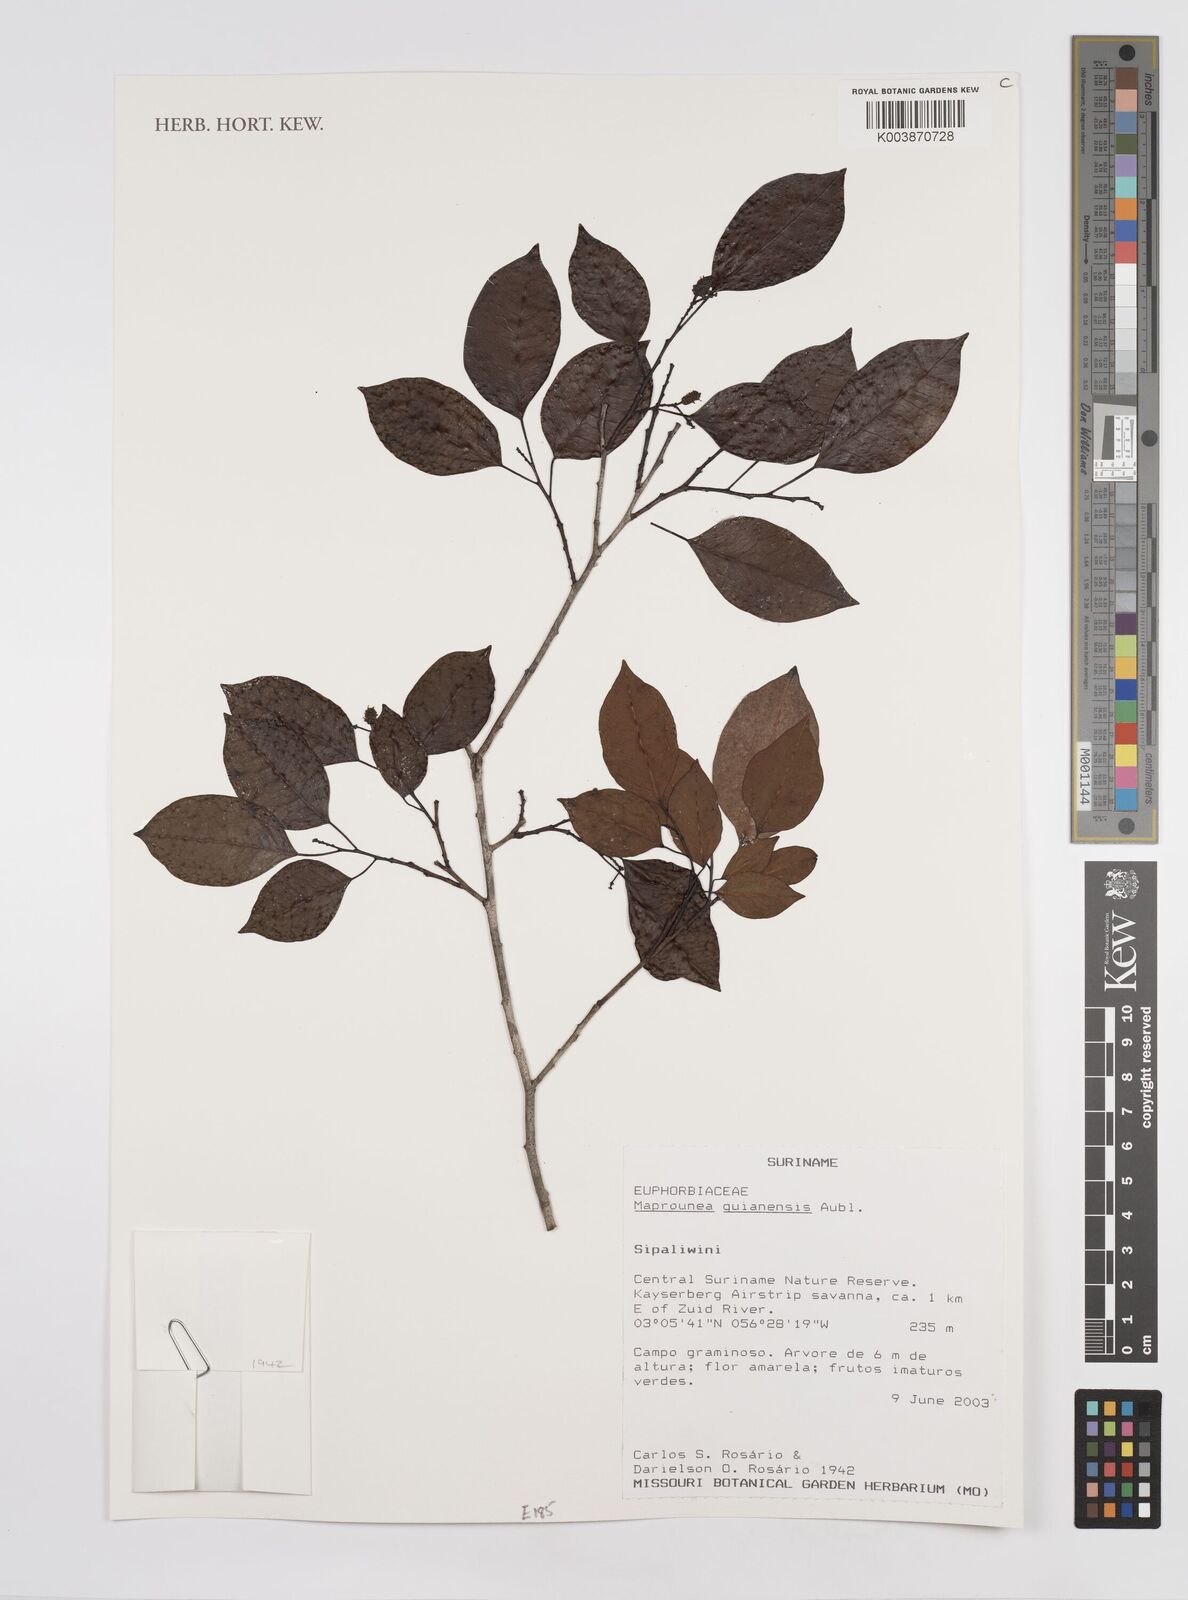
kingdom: Plantae
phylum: Tracheophyta
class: Magnoliopsida
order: Malpighiales
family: Euphorbiaceae
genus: Maprounea
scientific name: Maprounea guianensis
